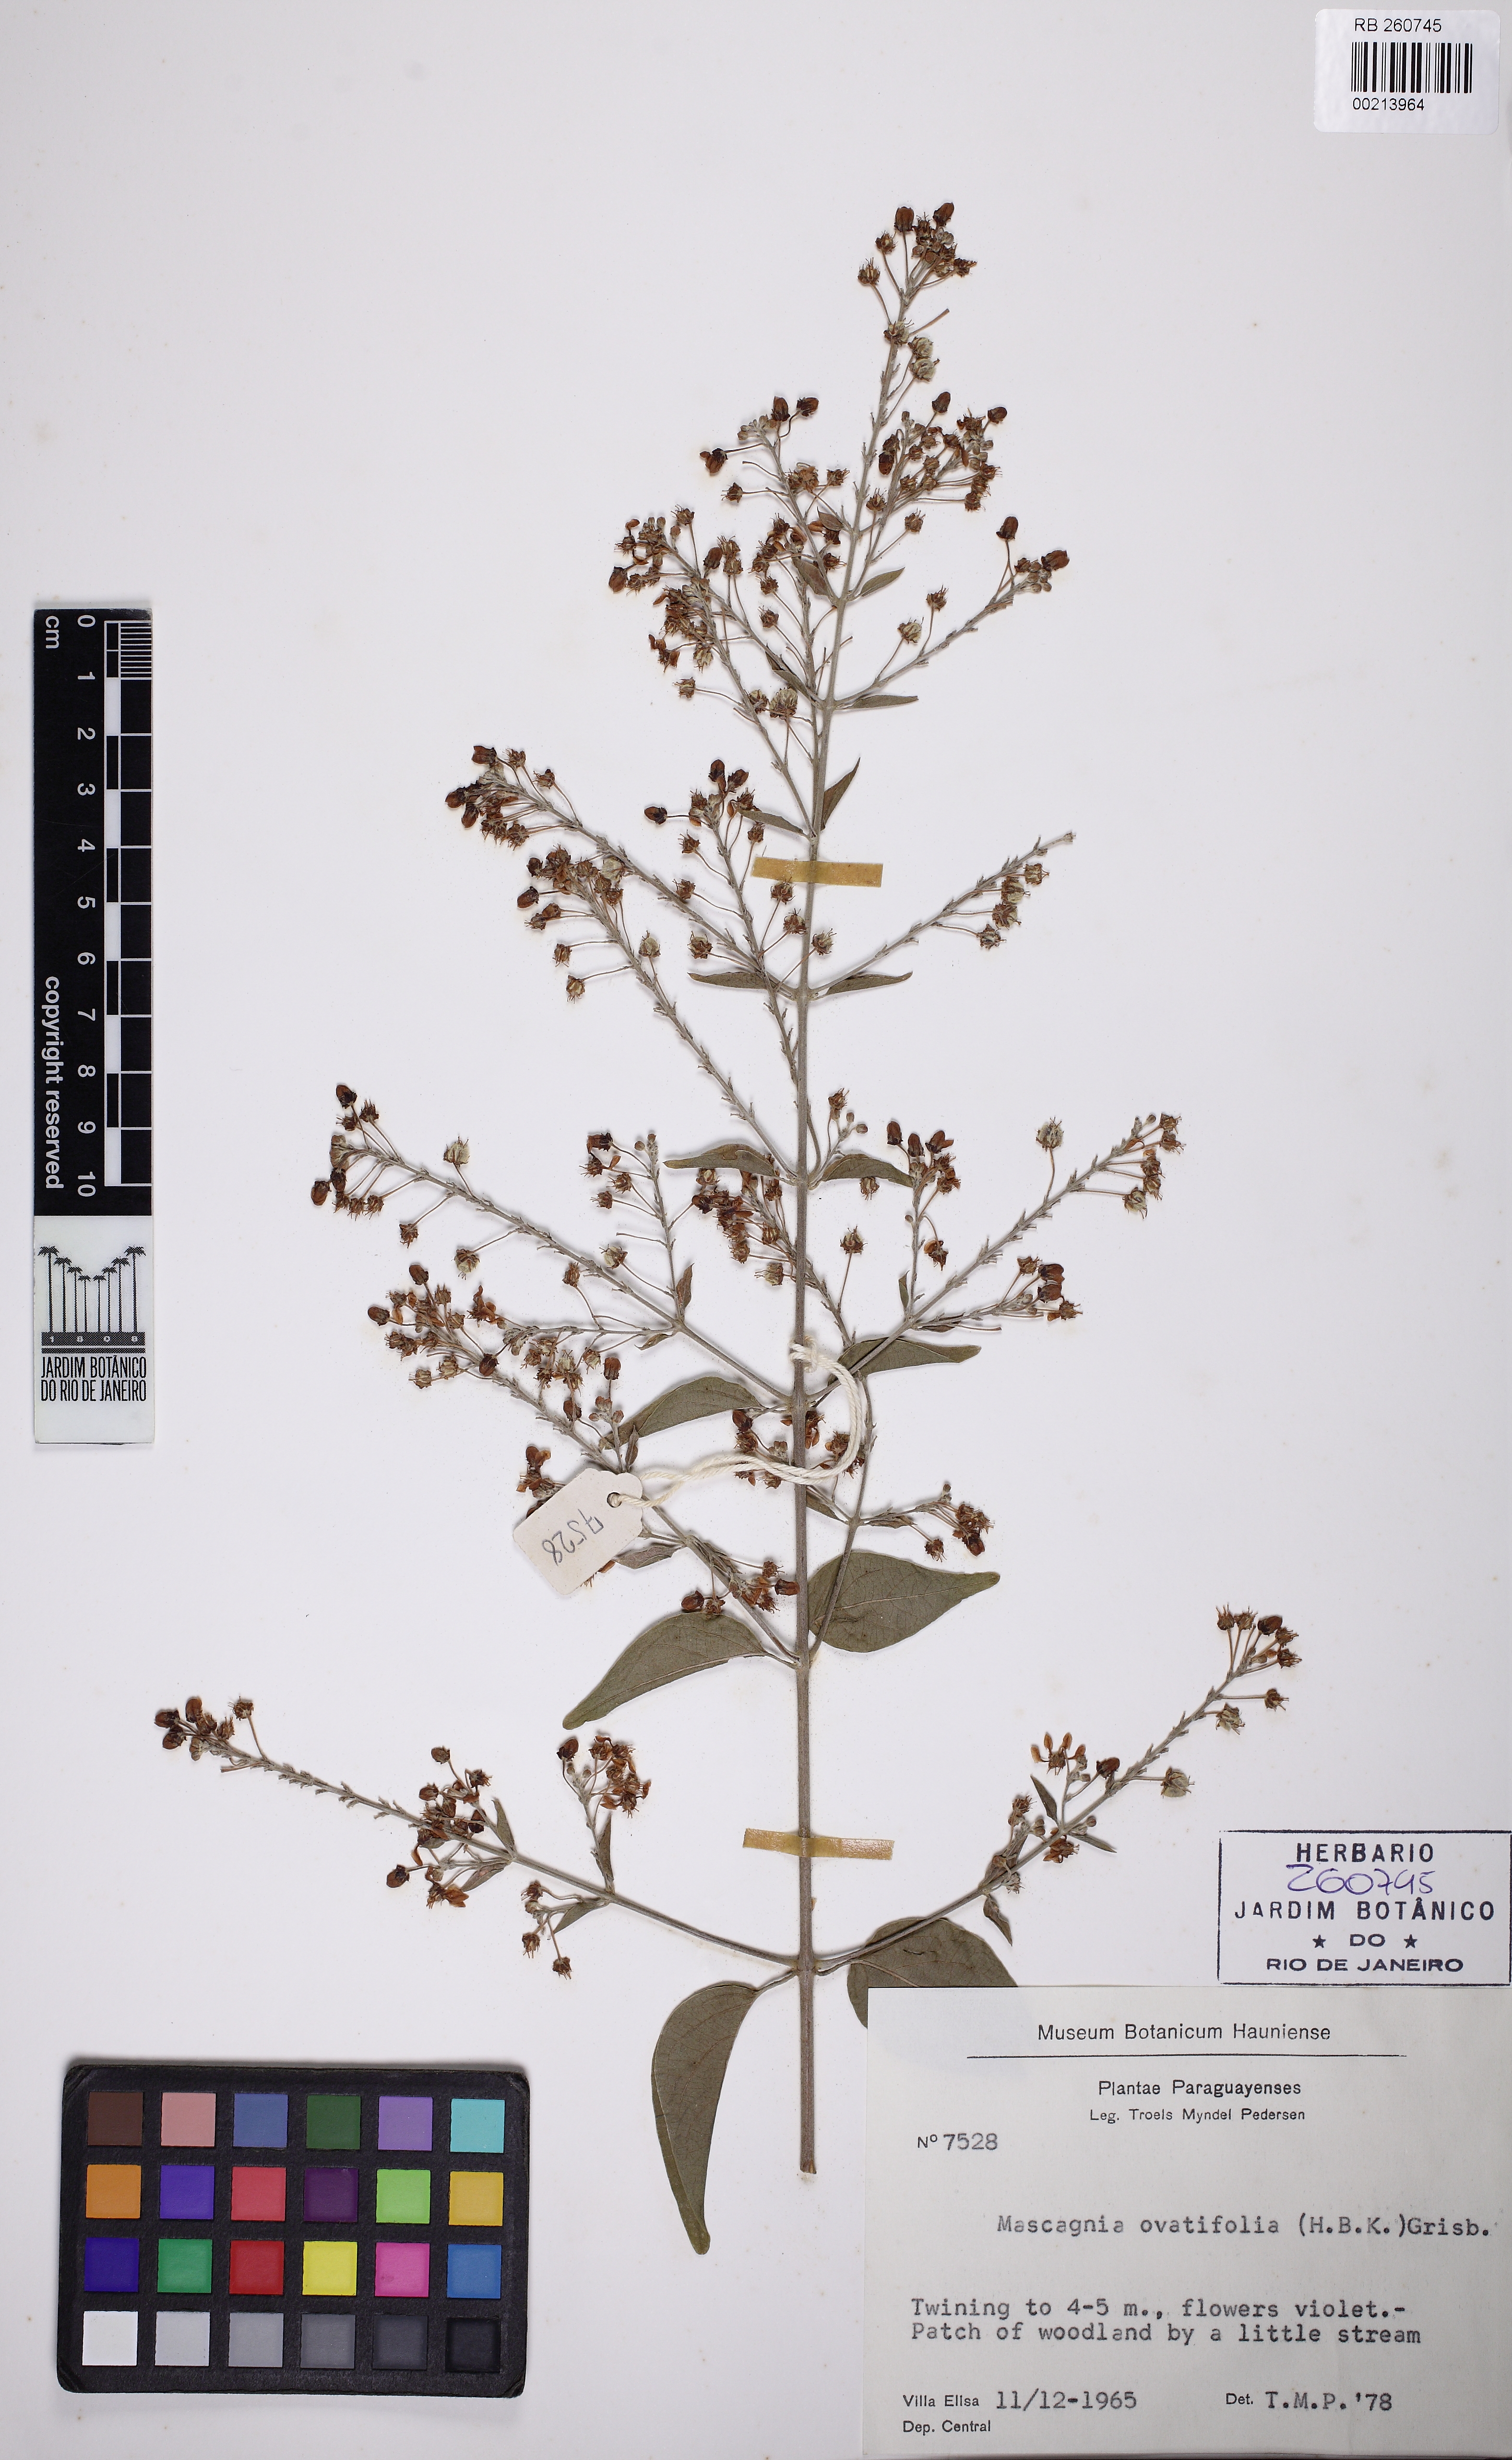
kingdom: Plantae
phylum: Tracheophyta
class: Magnoliopsida
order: Malpighiales
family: Malpighiaceae
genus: Mascagnia
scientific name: Mascagnia ovatifolia
